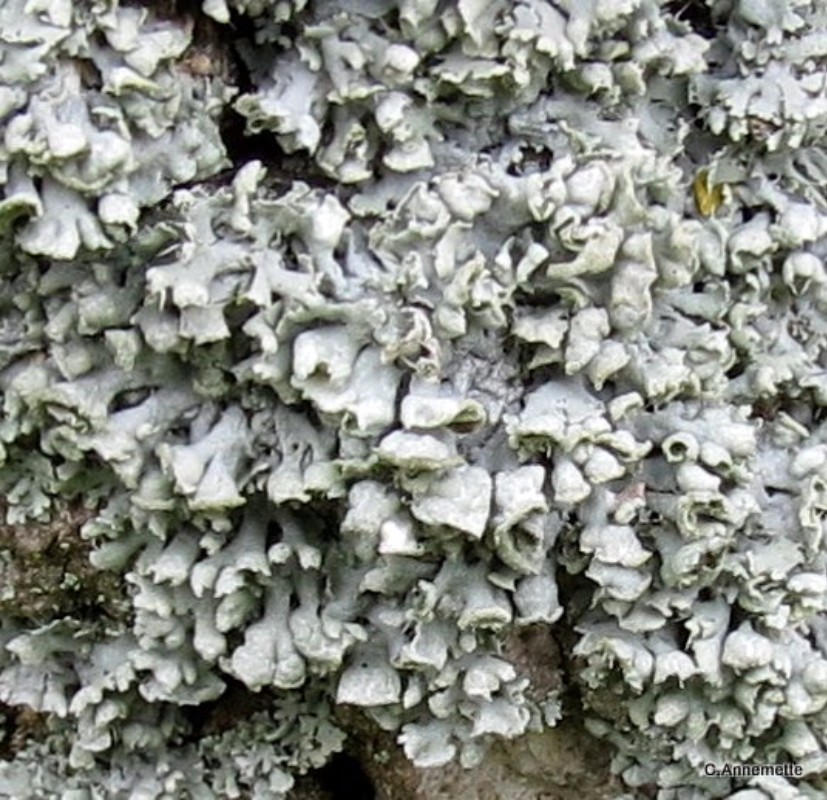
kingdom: Fungi
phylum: Ascomycota
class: Lecanoromycetes
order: Caliciales
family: Physciaceae
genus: Physcia
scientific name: Physcia adscendens
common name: hætte-rosetlav
